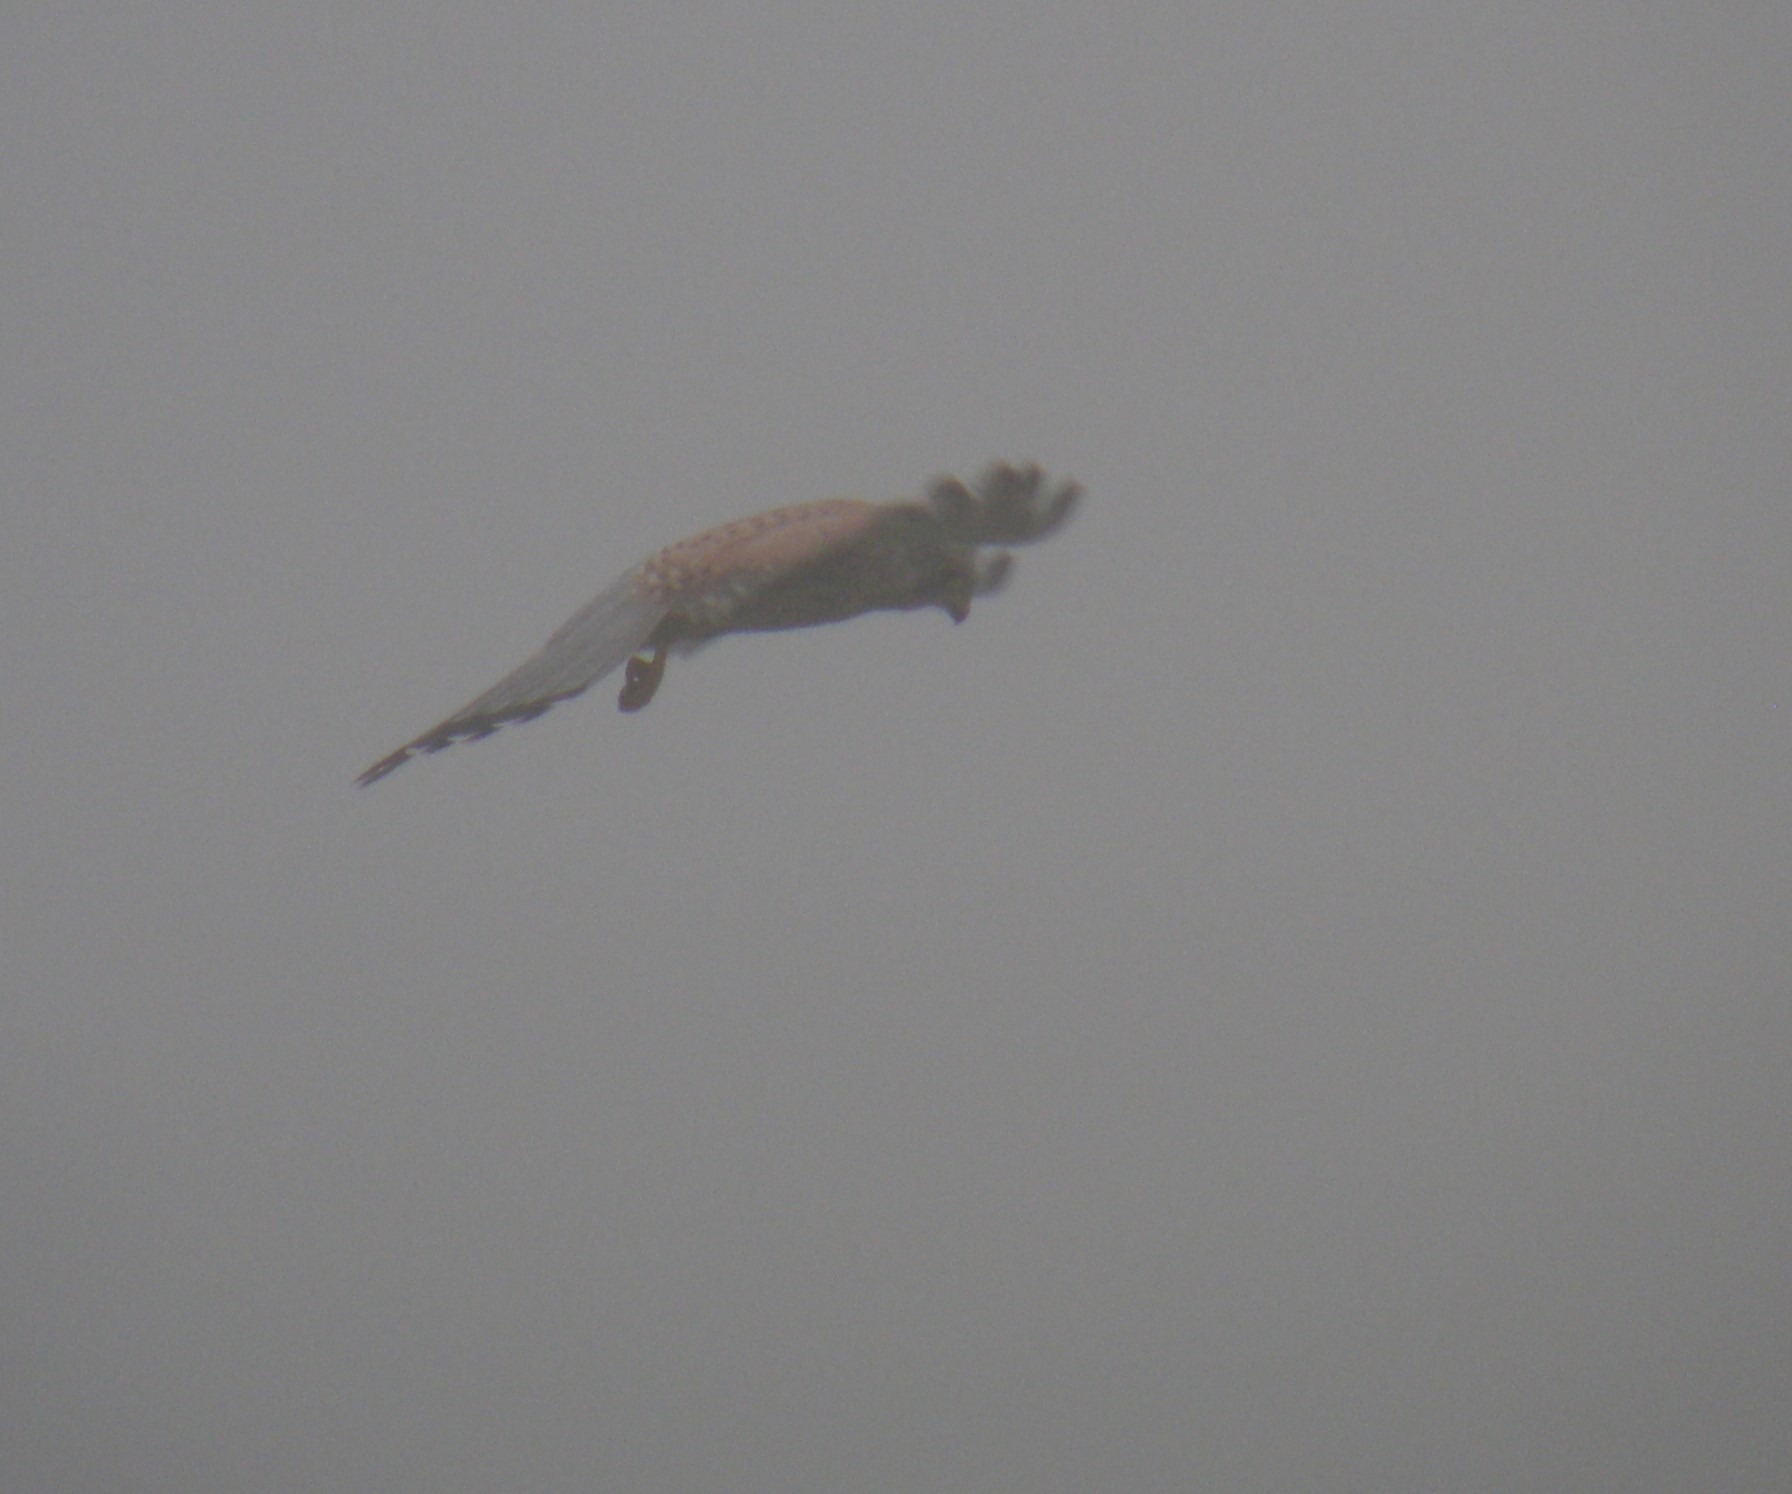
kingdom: Animalia
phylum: Chordata
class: Aves
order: Falconiformes
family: Falconidae
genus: Falco
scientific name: Falco tinnunculus
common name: Tårnfalk
